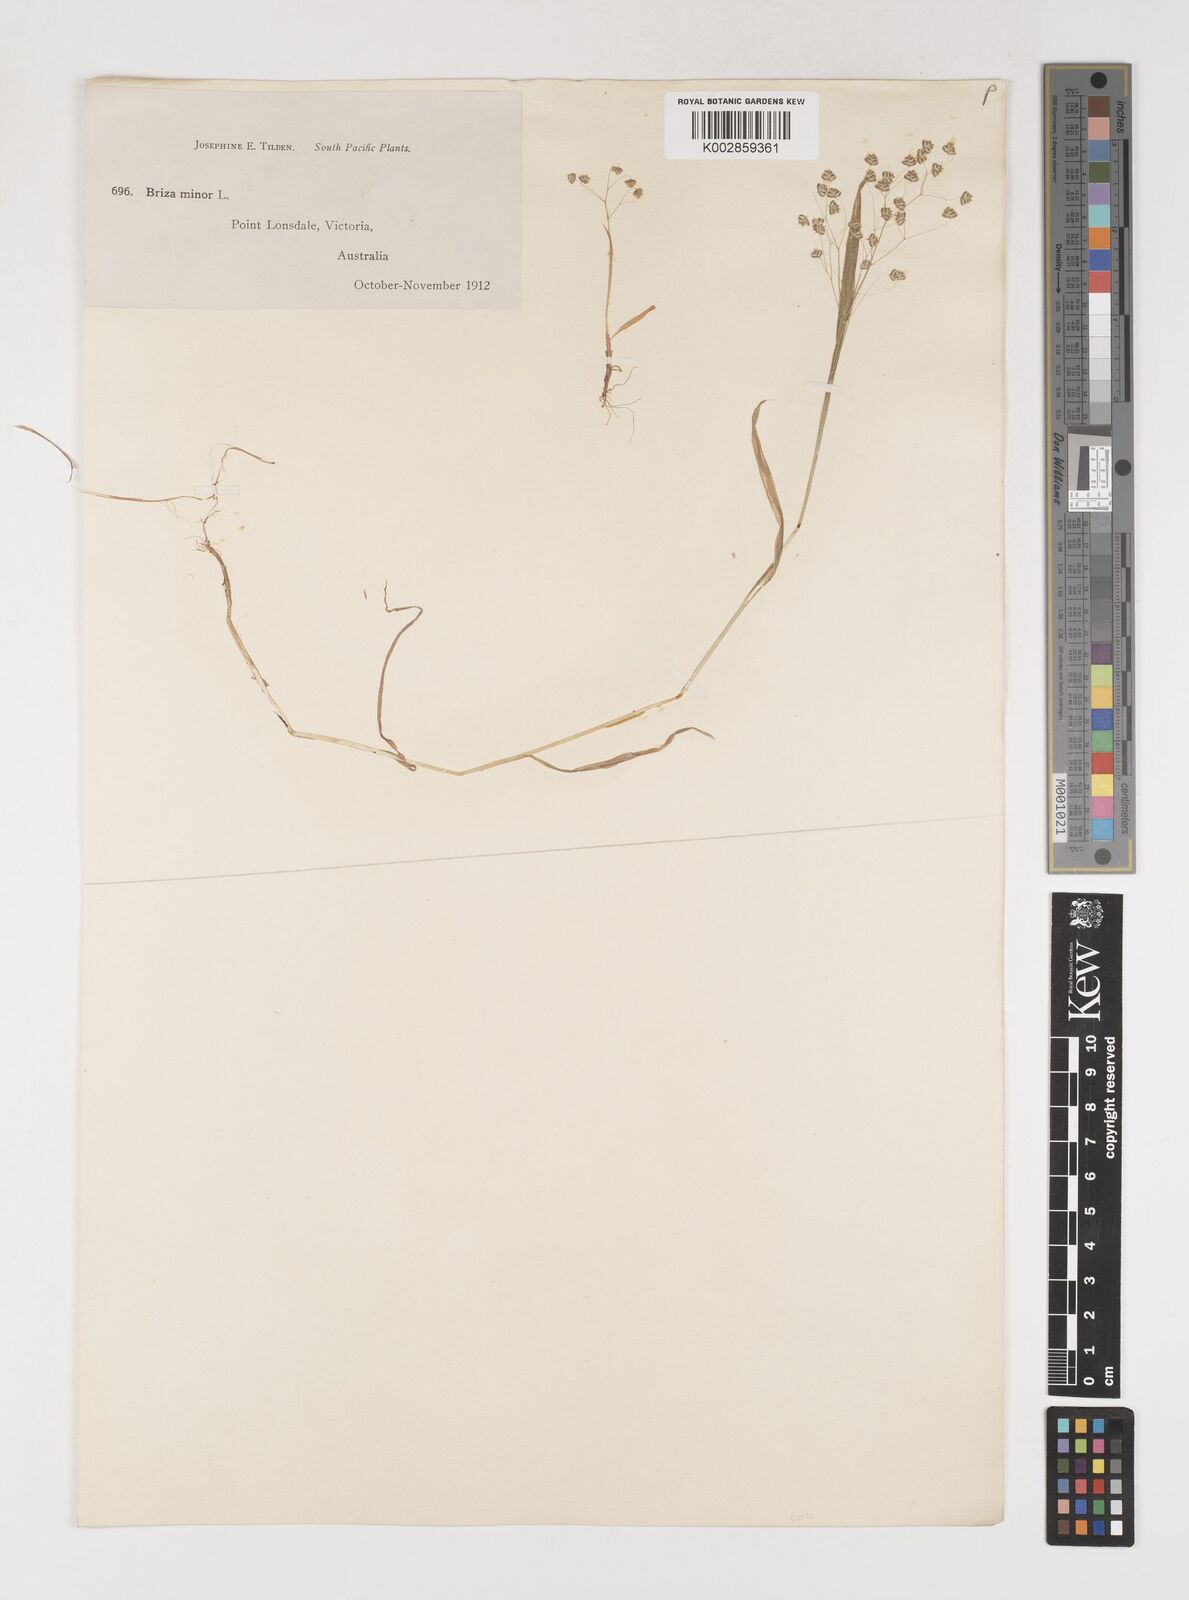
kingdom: Plantae
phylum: Tracheophyta
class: Liliopsida
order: Poales
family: Poaceae
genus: Briza
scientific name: Briza minor
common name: Lesser quaking-grass
